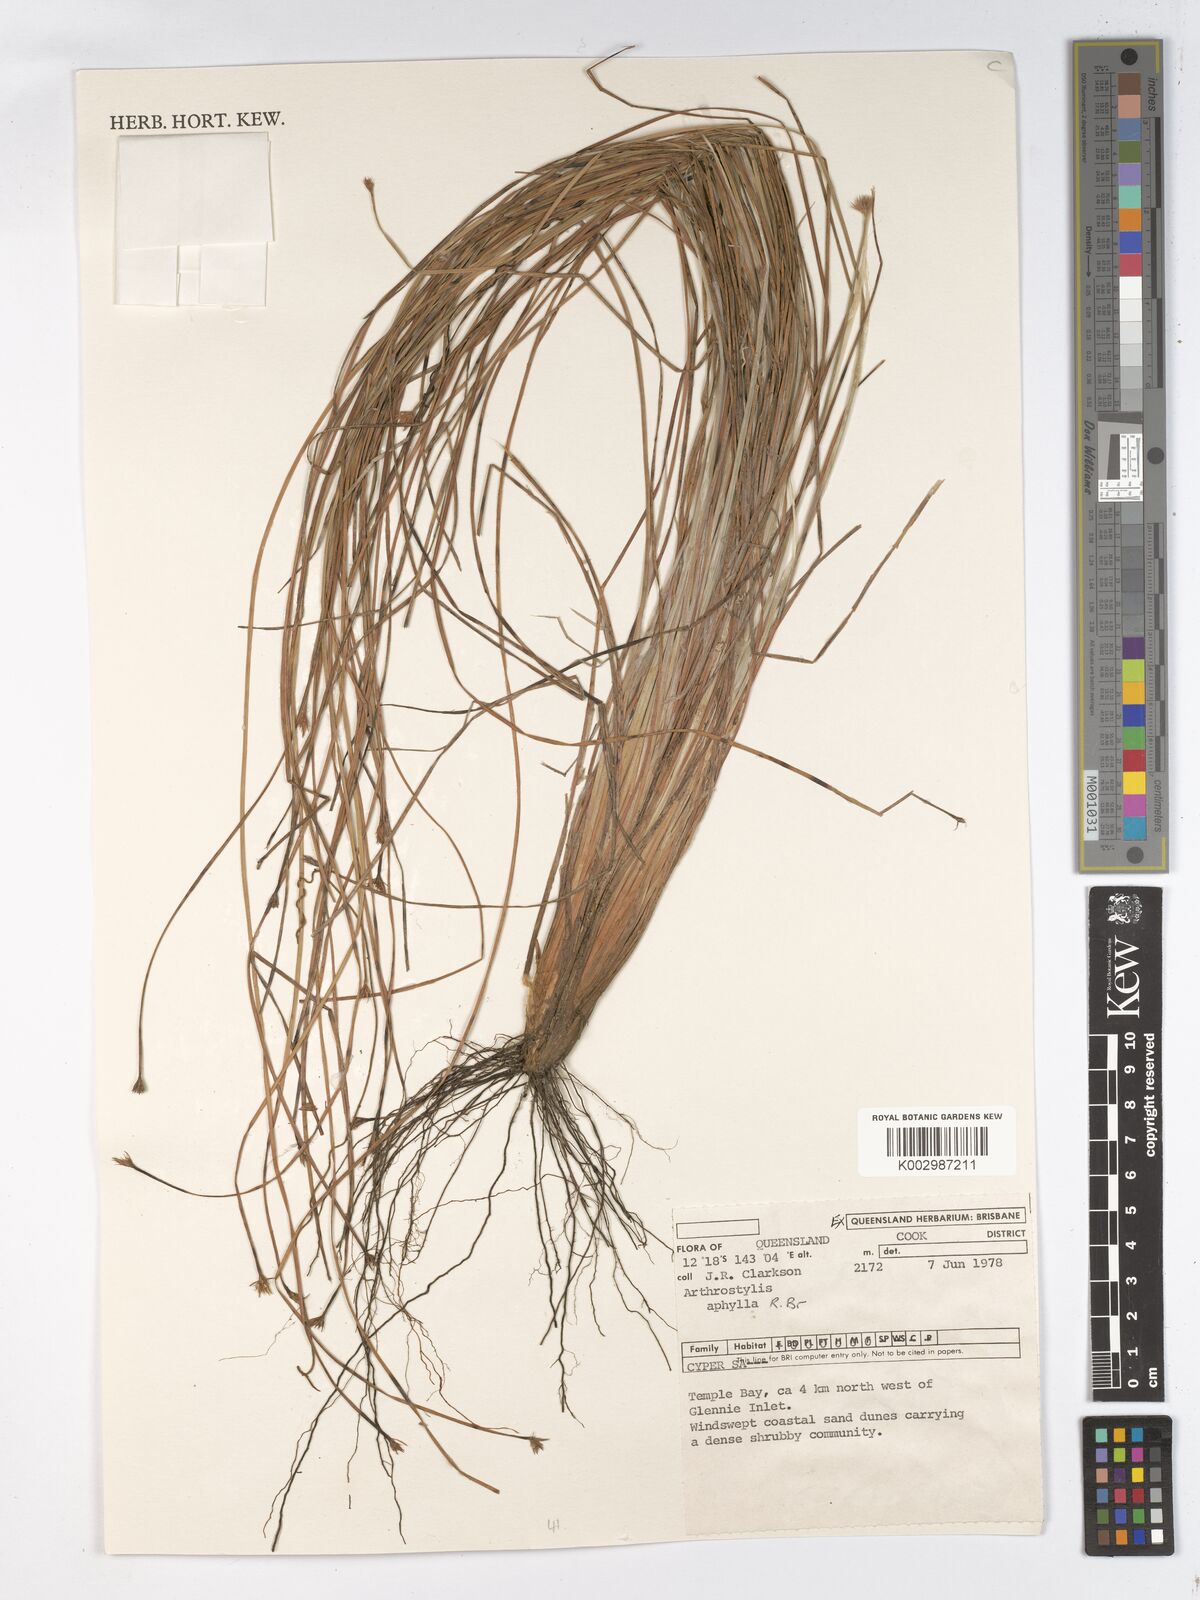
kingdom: Plantae
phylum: Tracheophyta
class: Liliopsida
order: Poales
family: Cyperaceae
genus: Arthrostylis
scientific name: Arthrostylis aphylla
